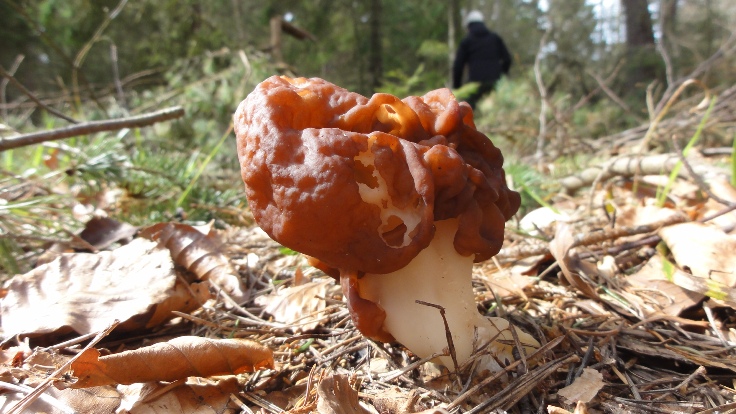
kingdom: Fungi
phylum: Ascomycota
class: Pezizomycetes
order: Pezizales
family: Discinaceae
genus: Gyromitra
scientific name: Gyromitra esculenta
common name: ægte stenmorkel
